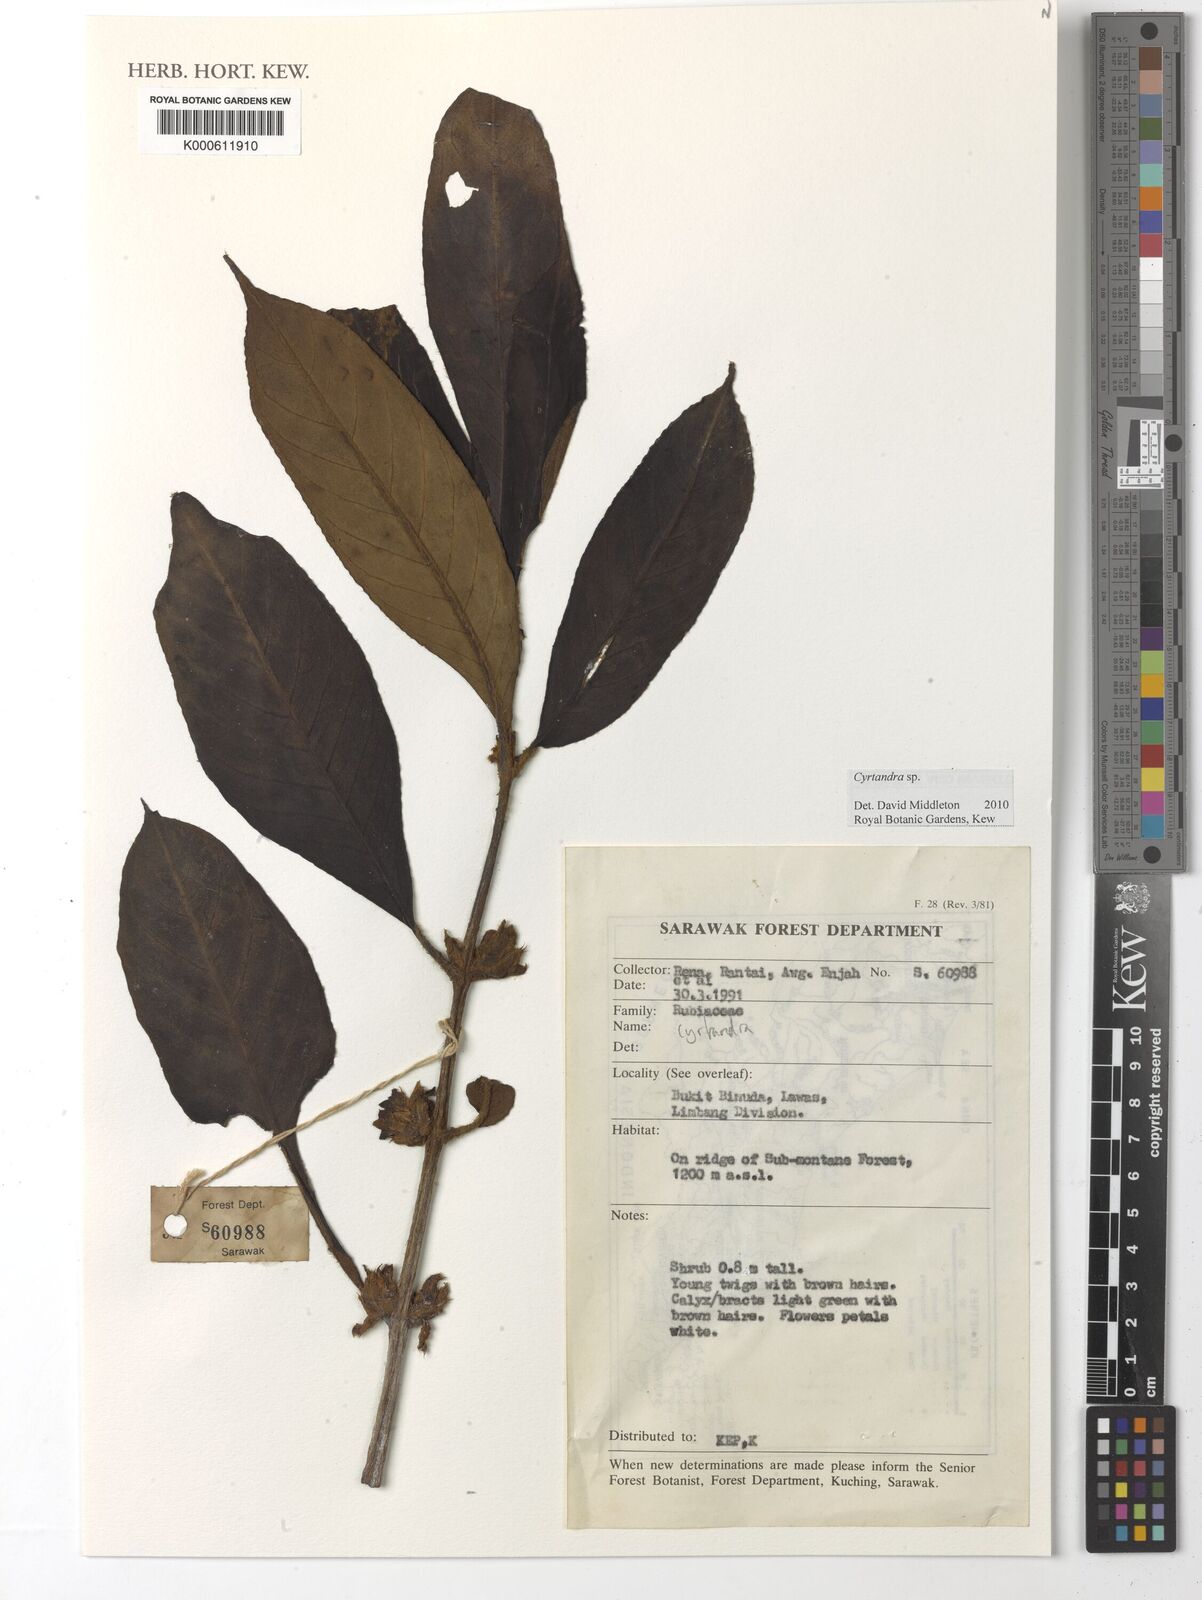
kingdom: Plantae
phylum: Tracheophyta
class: Magnoliopsida
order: Lamiales
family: Gesneriaceae
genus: Cyrtandra
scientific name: Cyrtandra
